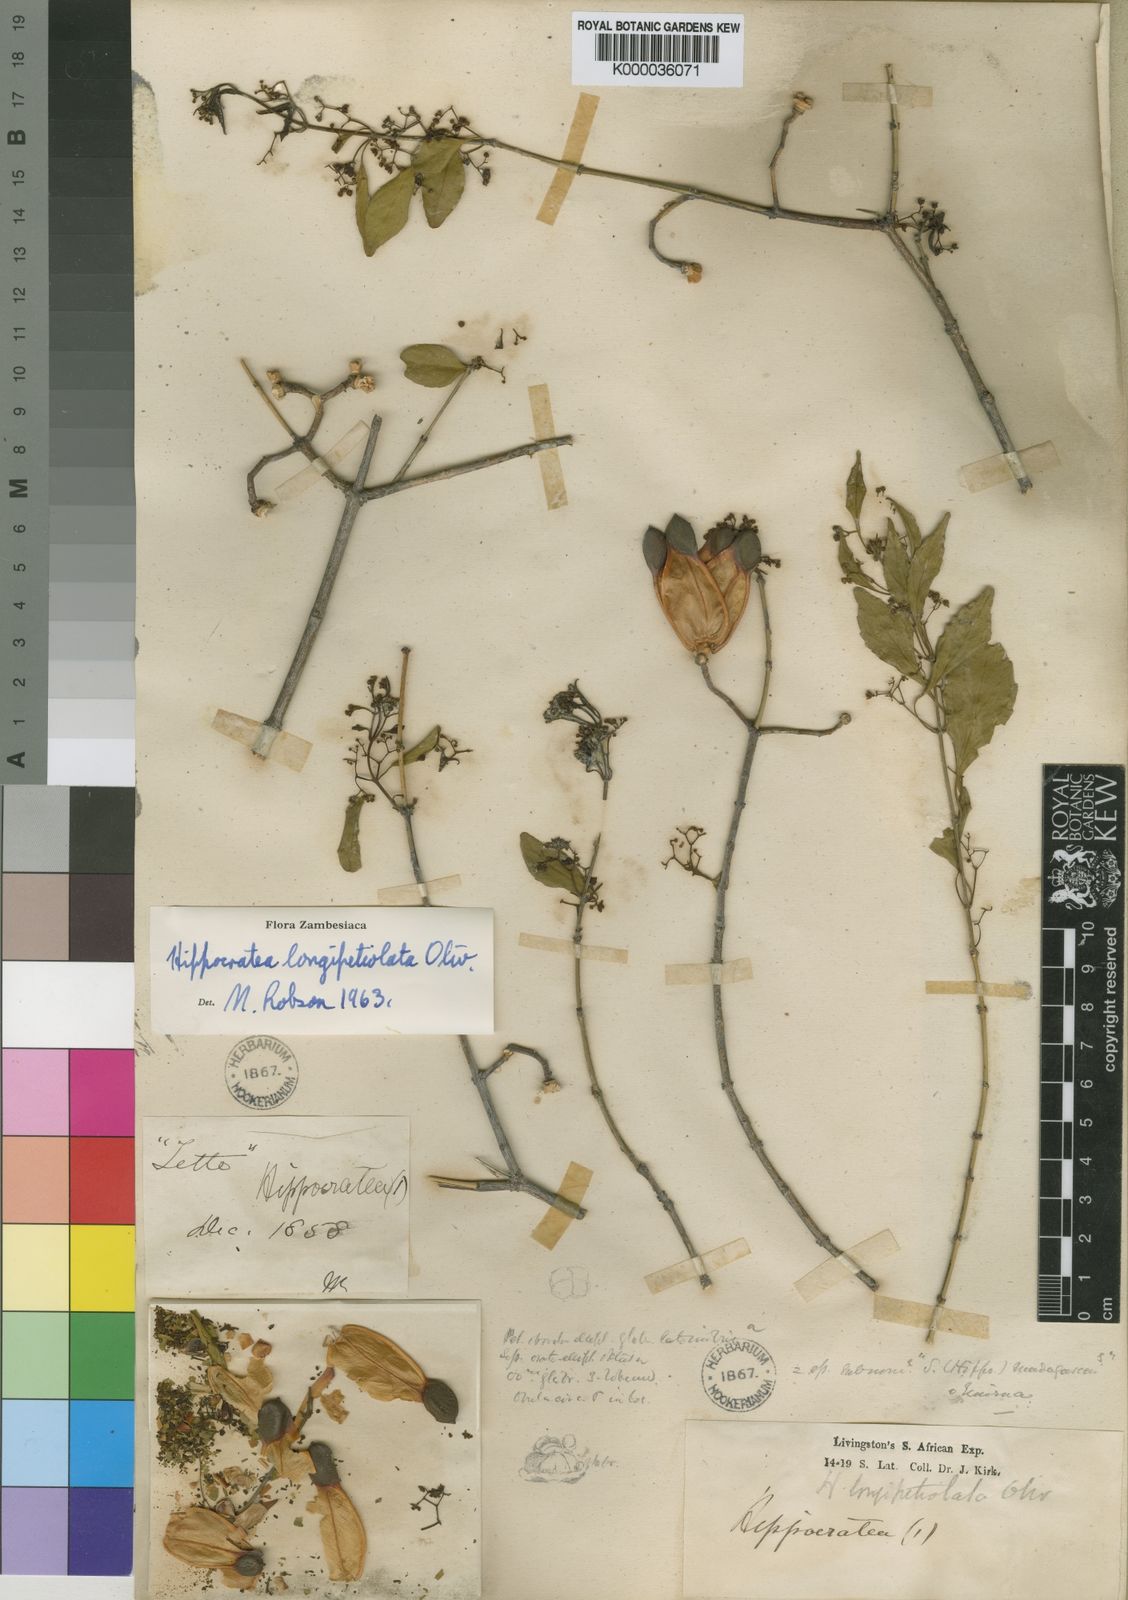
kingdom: Plantae
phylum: Tracheophyta
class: Magnoliopsida
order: Celastrales
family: Celastraceae
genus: Pristimera
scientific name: Pristimera
